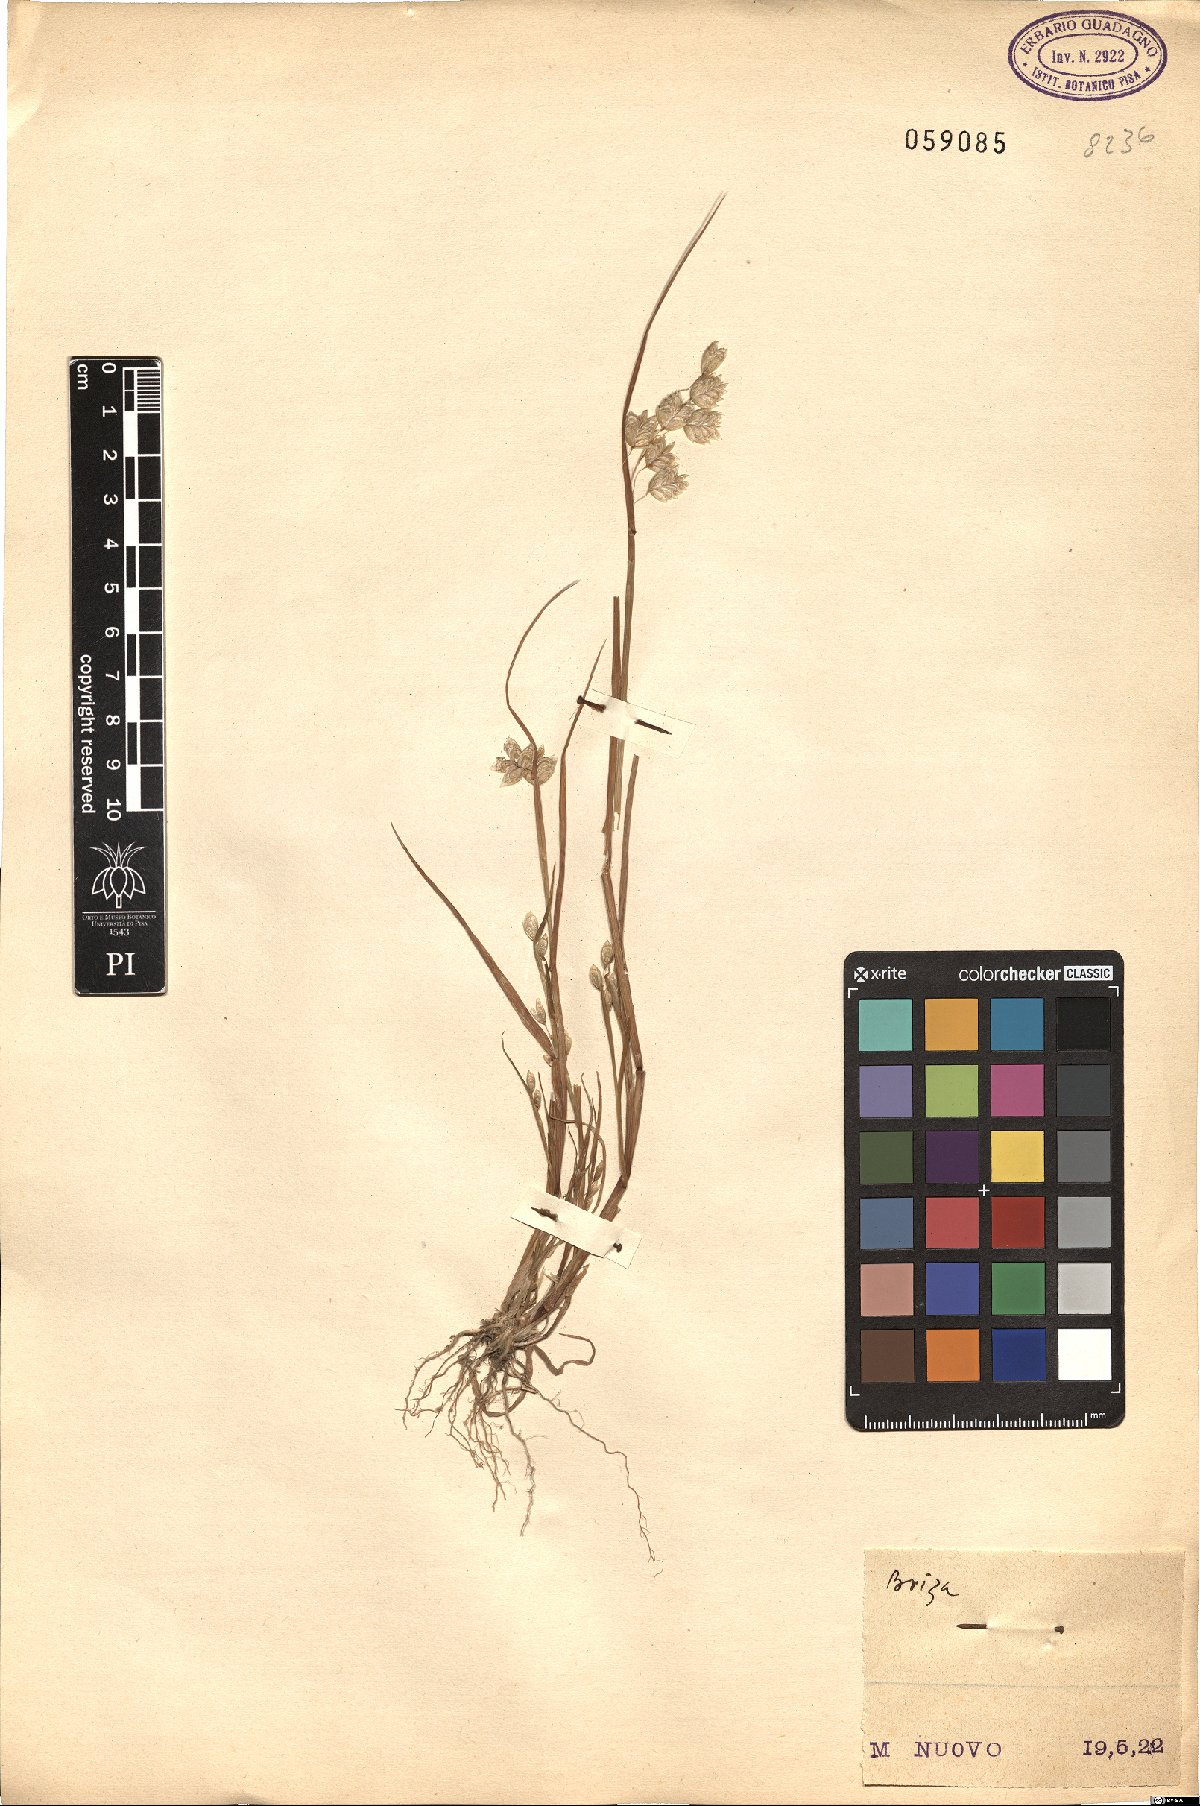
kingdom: Plantae
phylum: Tracheophyta
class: Liliopsida
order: Poales
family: Poaceae
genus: Briza
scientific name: Briza
